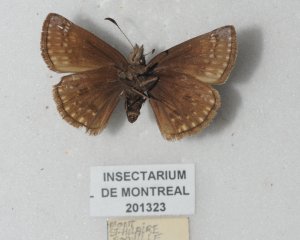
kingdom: Animalia
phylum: Arthropoda
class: Insecta
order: Lepidoptera
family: Hesperiidae
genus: Gesta
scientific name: Gesta
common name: Juvenal's Duskywing
